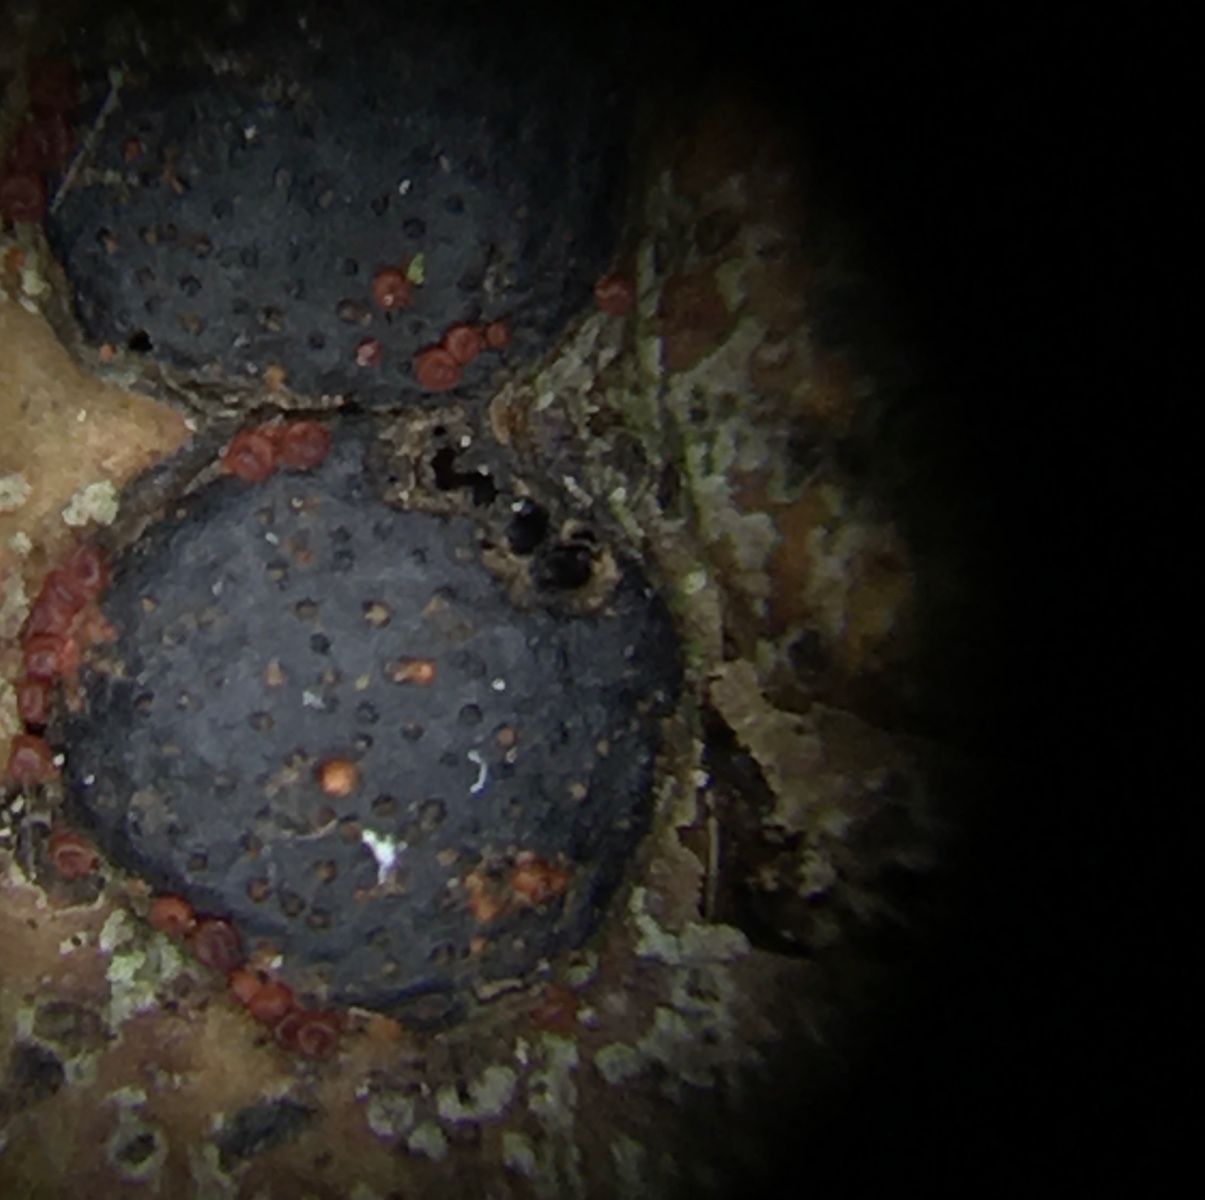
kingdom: Fungi
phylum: Ascomycota
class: Sordariomycetes
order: Hypocreales
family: Nectriaceae
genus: Dialonectria
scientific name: Dialonectria diatrypicola
